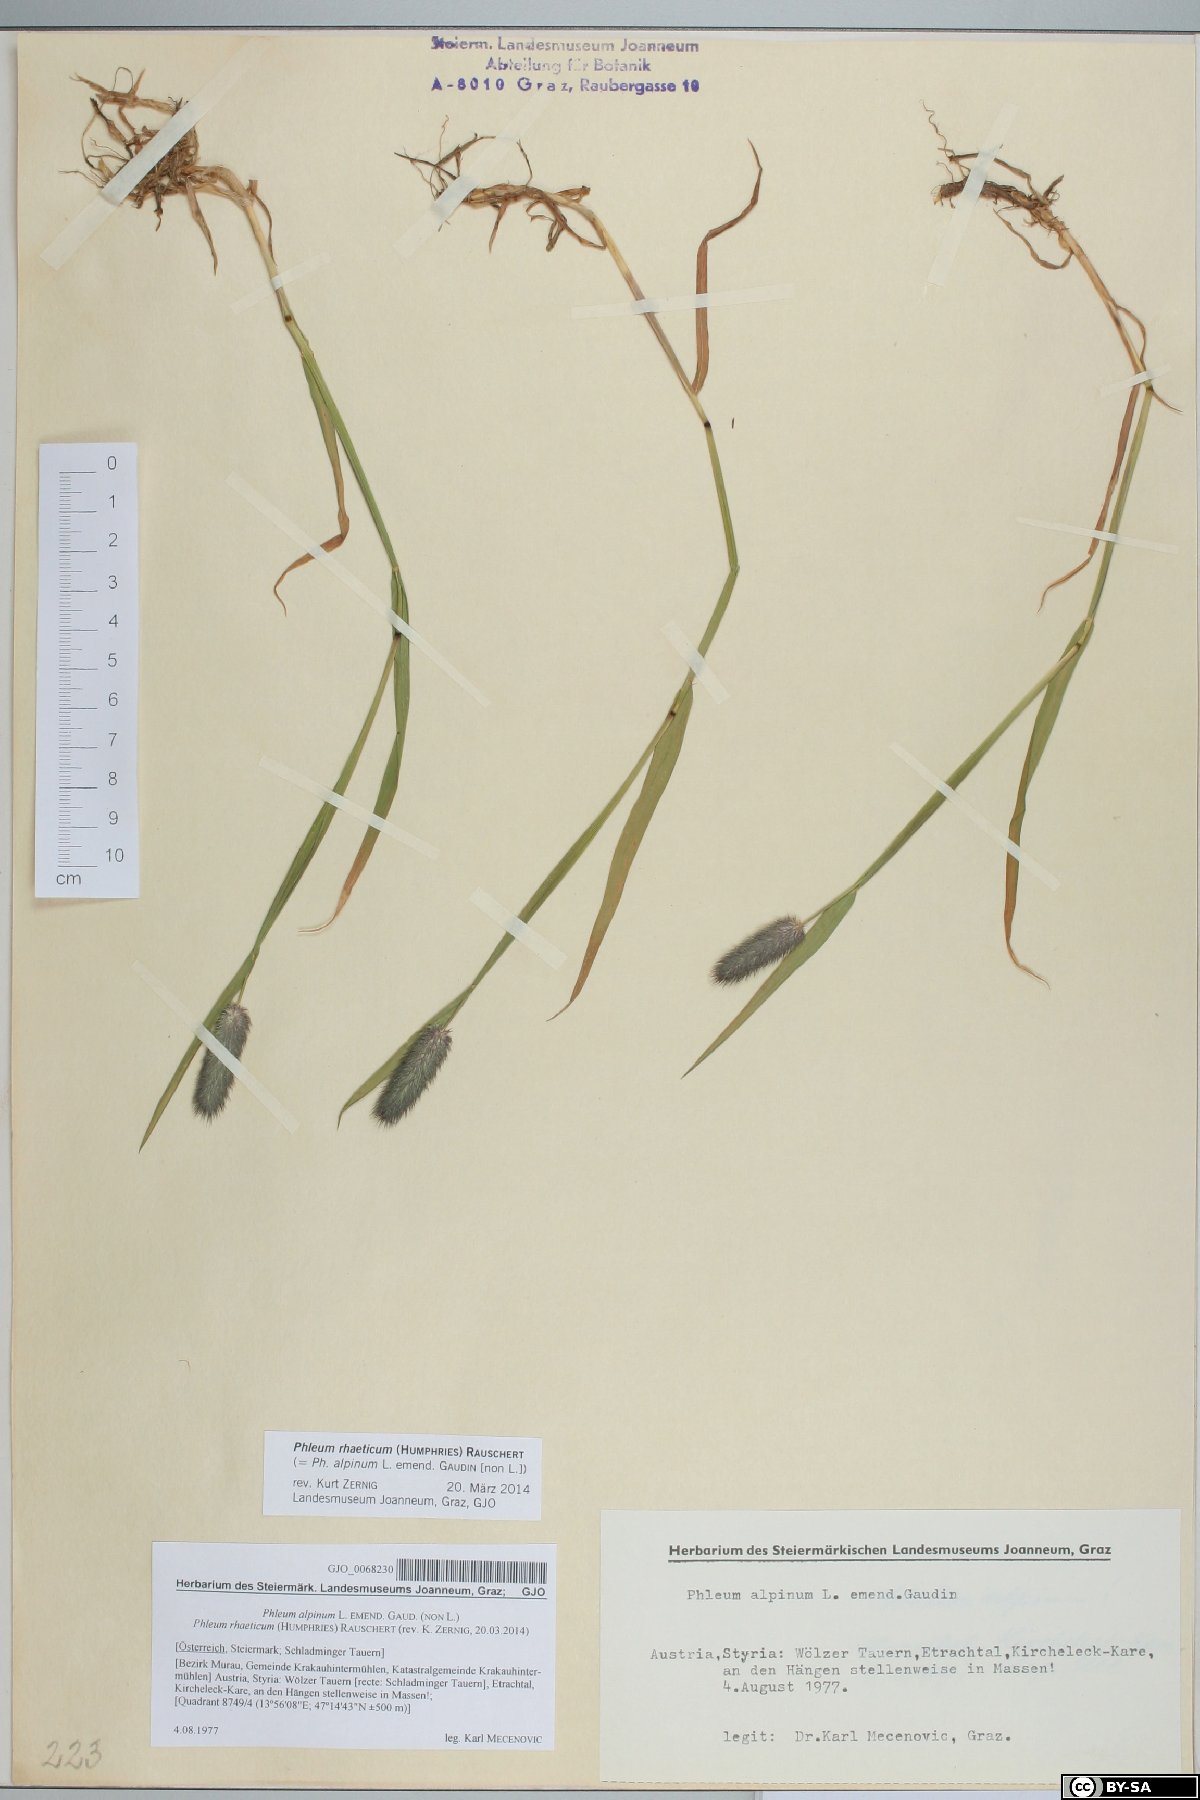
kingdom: Plantae
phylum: Tracheophyta
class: Liliopsida
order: Poales
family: Poaceae
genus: Phleum
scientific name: Phleum alpinum
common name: Alpine cat's-tail
